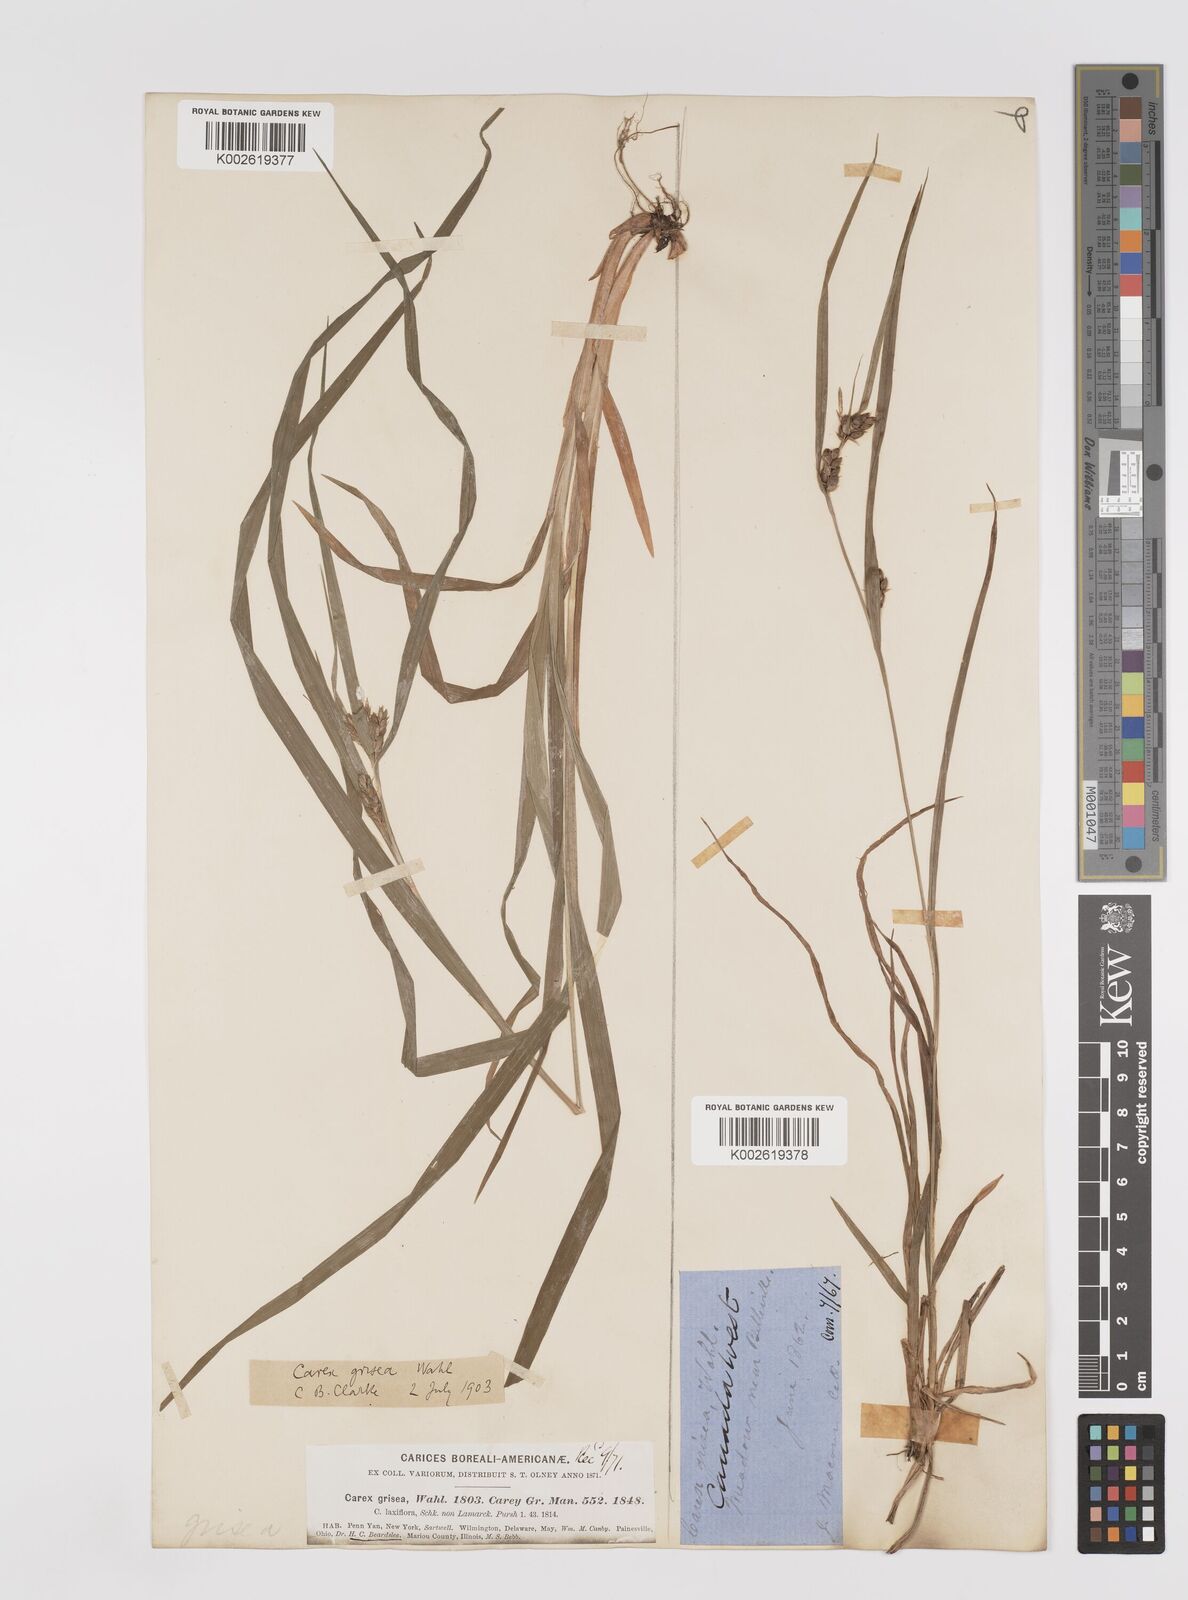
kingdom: Plantae
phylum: Tracheophyta
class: Liliopsida
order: Poales
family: Cyperaceae
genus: Carex
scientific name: Carex grisea
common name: Eastern narrow-leaved sedge
